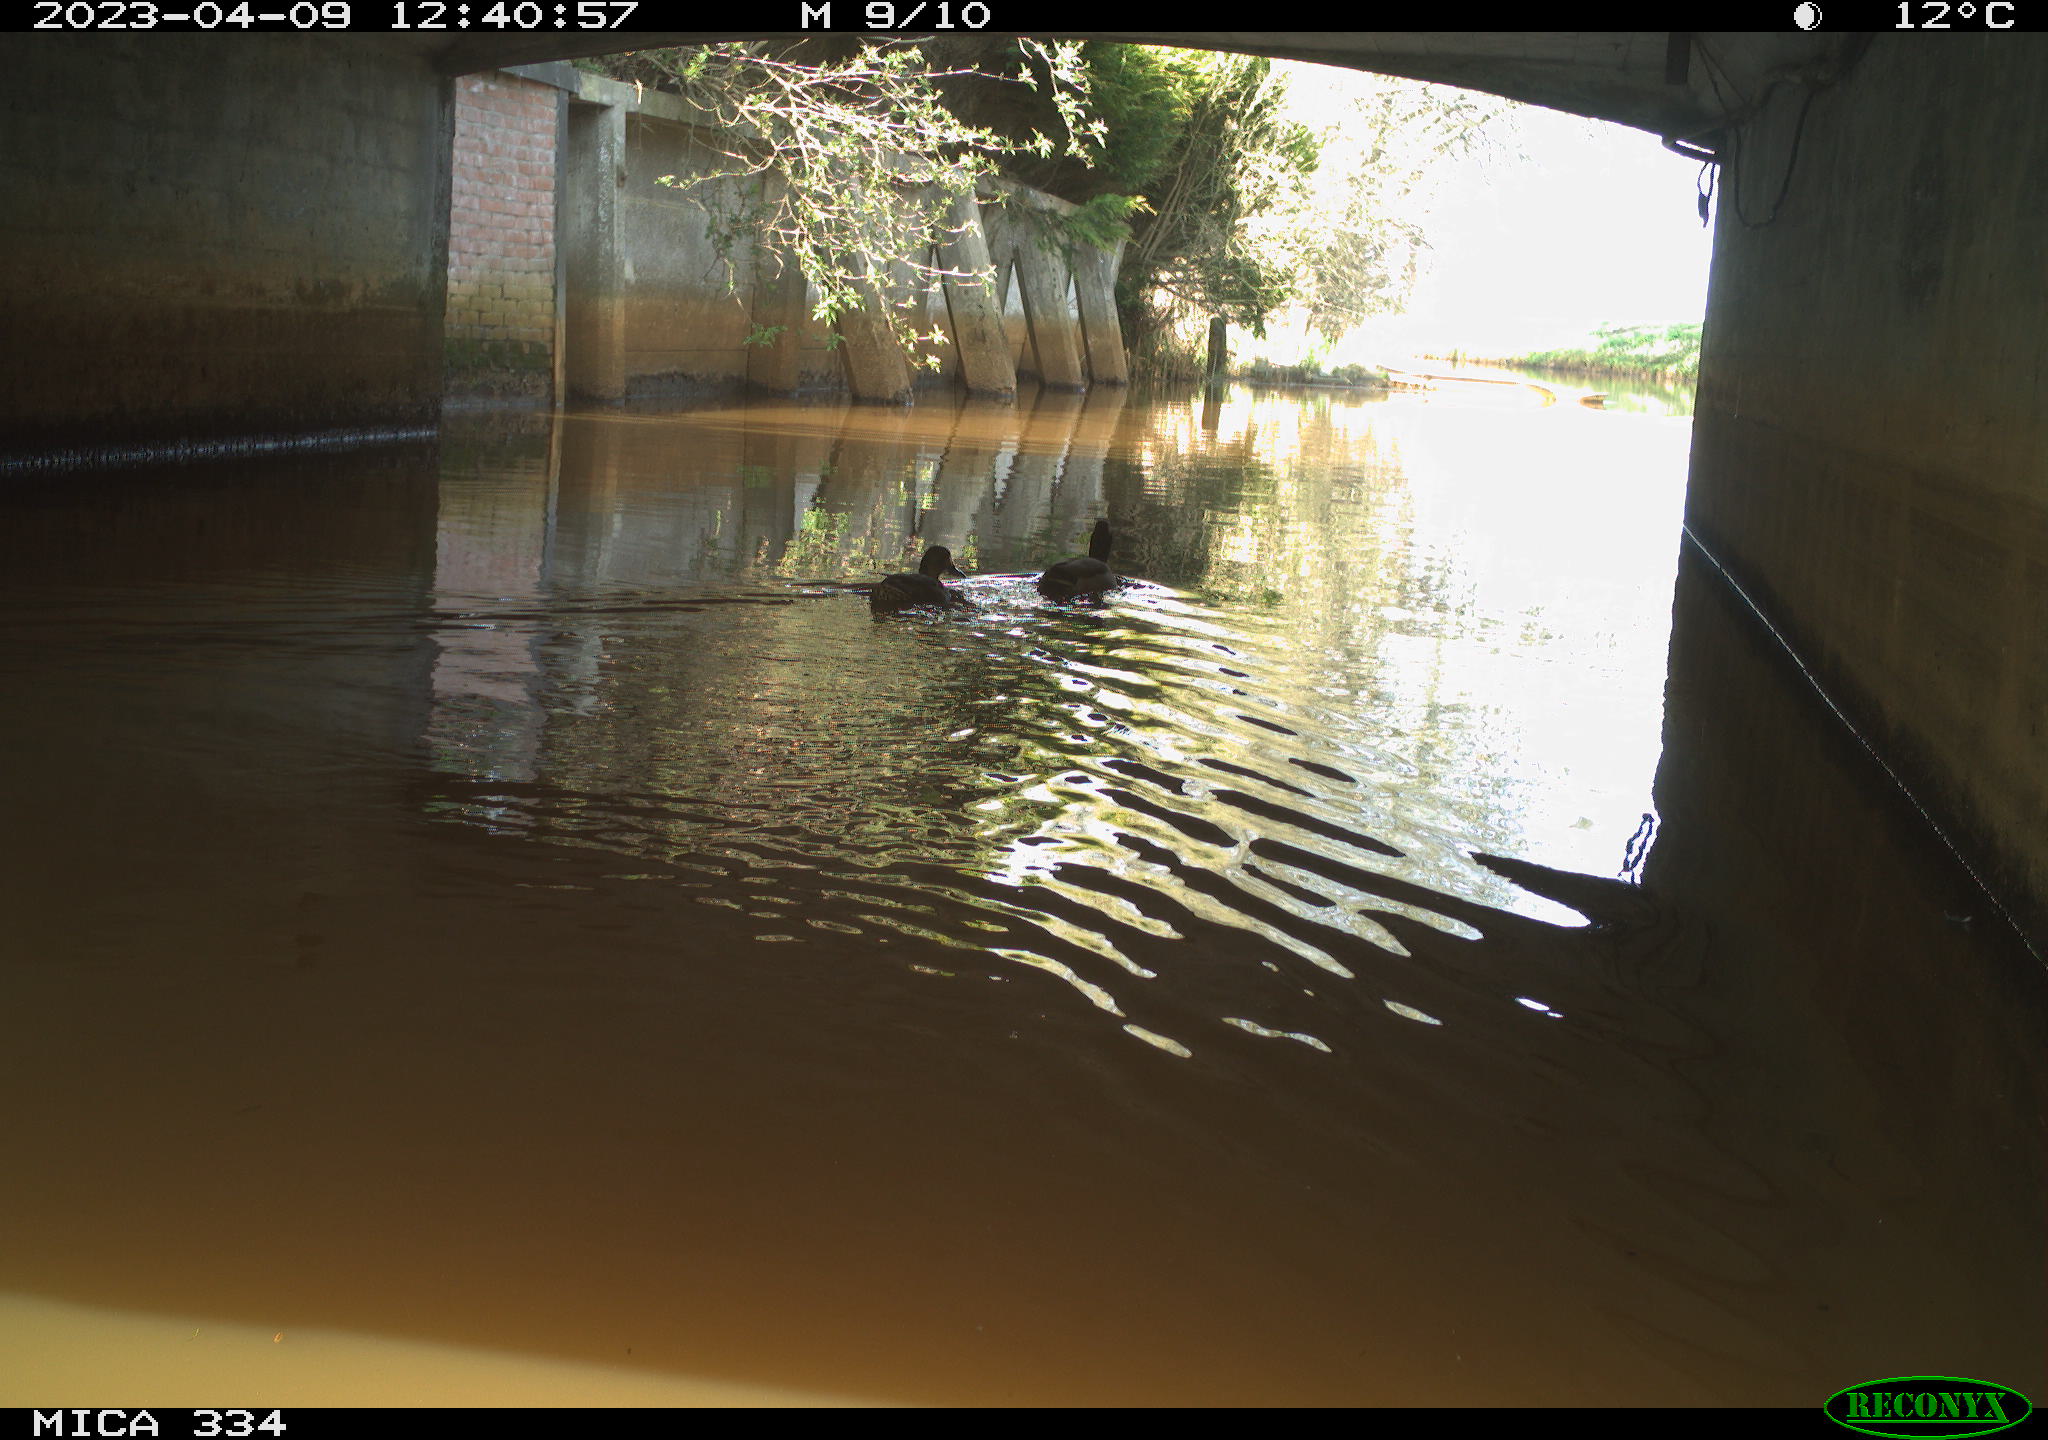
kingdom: Animalia
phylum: Chordata
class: Aves
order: Gruiformes
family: Rallidae
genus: Gallinula
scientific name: Gallinula chloropus
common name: Common moorhen
